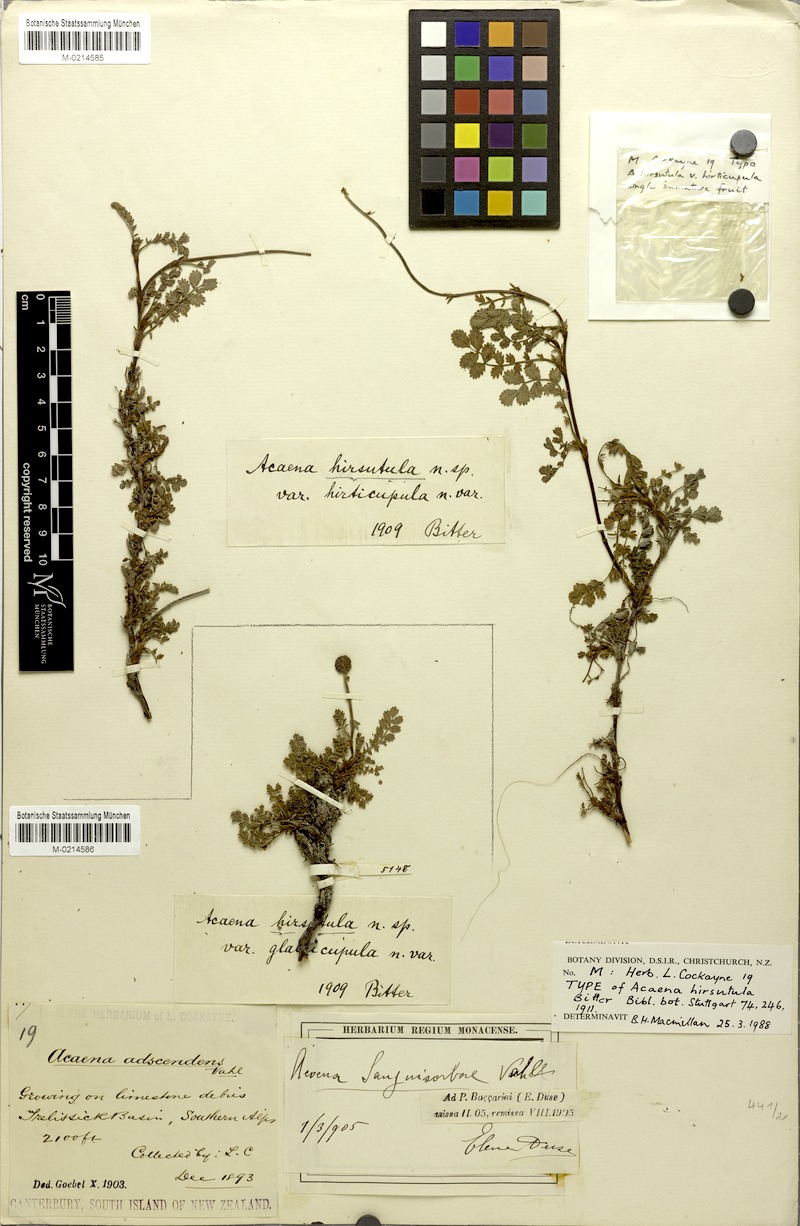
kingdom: Plantae
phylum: Tracheophyta
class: Magnoliopsida
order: Rosales
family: Rosaceae
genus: Acaena
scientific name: Acaena saccaticupula
